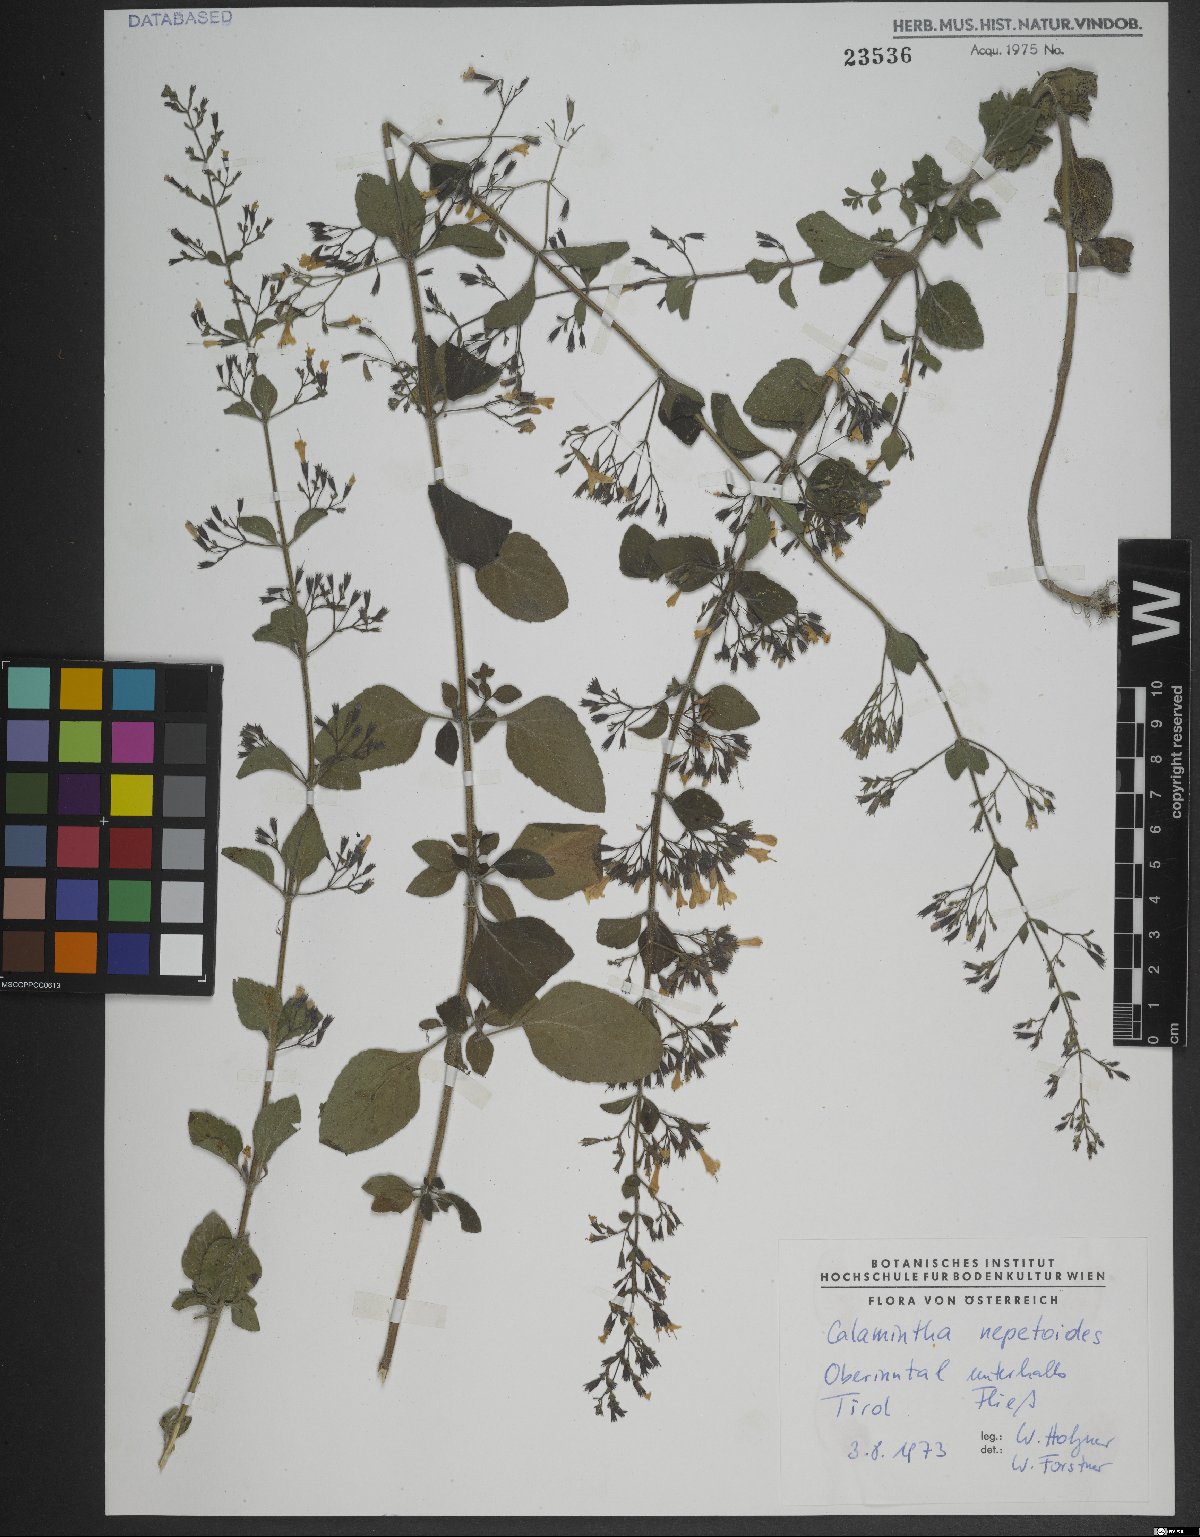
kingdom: Plantae
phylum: Tracheophyta
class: Magnoliopsida
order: Lamiales
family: Lamiaceae
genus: Clinopodium
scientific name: Clinopodium nepeta
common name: Lesser calamint
